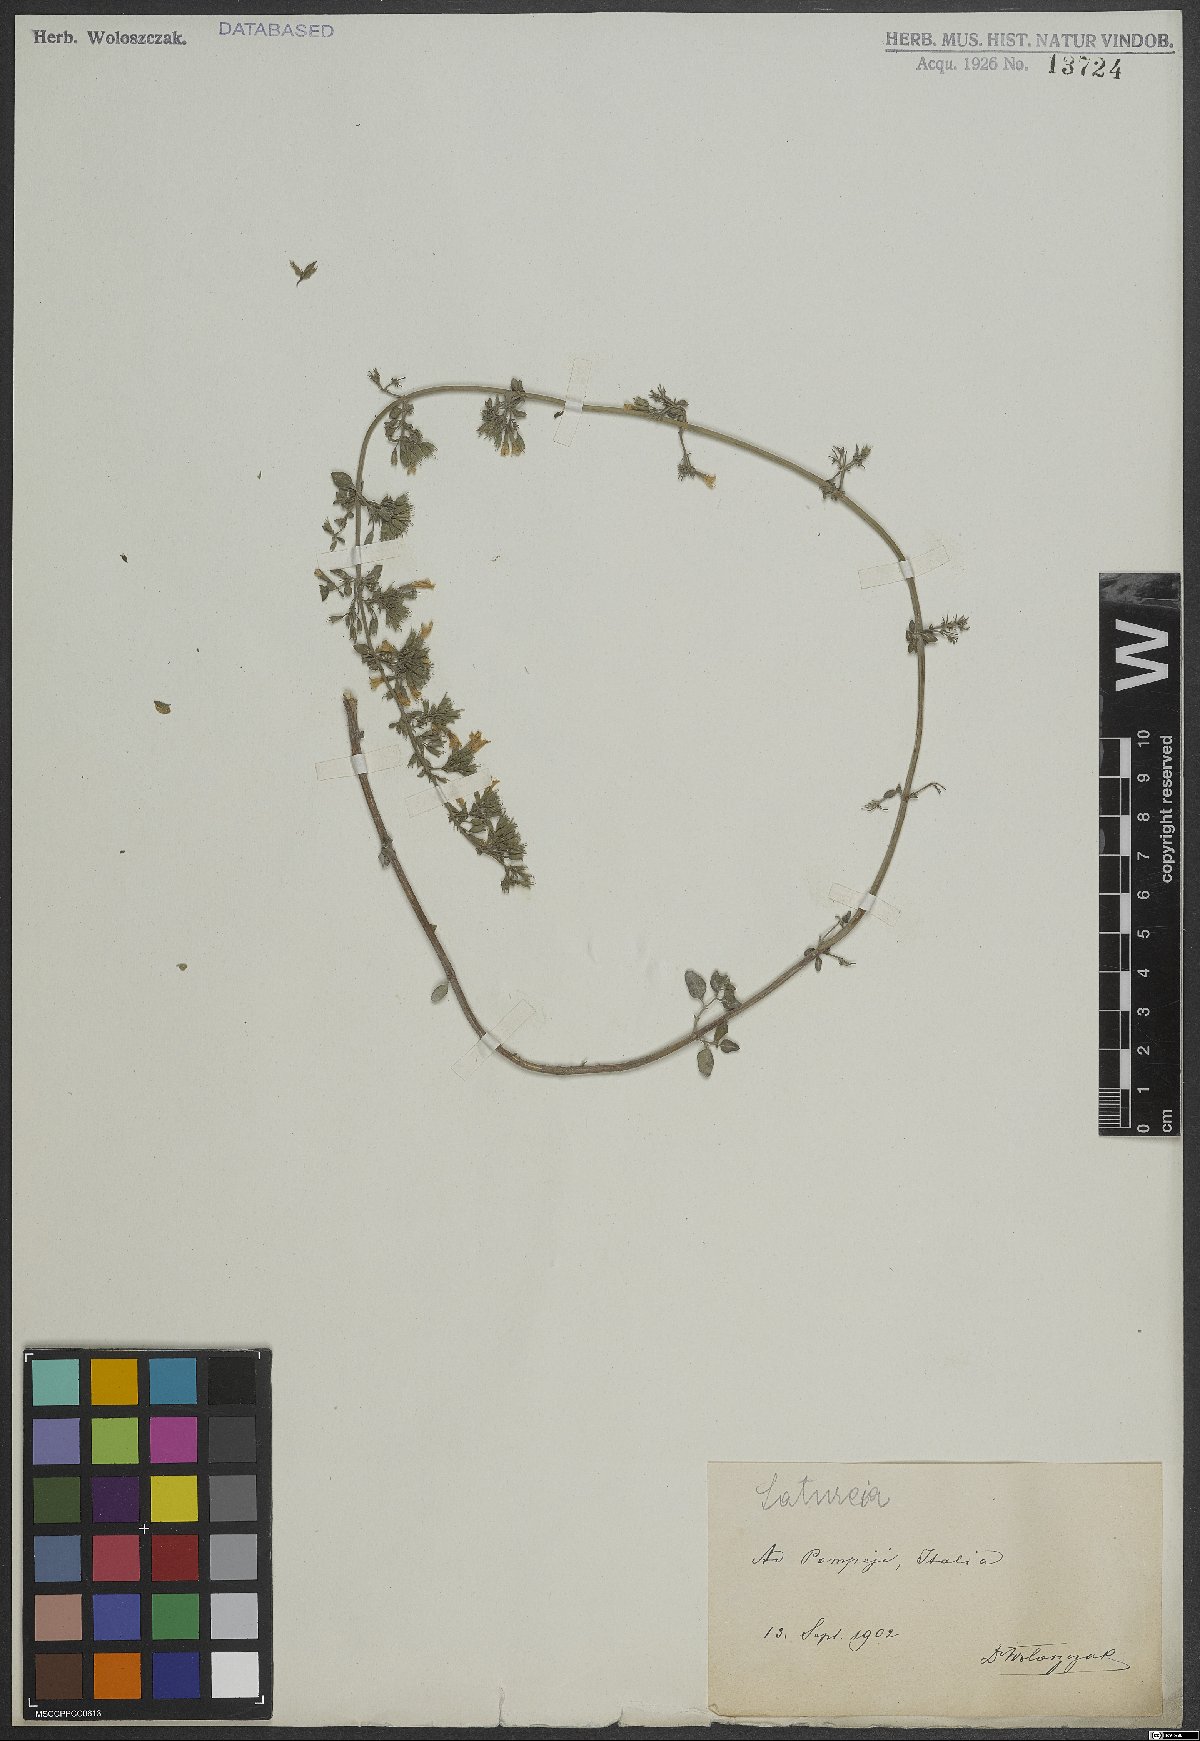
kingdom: Plantae
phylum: Tracheophyta
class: Magnoliopsida
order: Lamiales
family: Lamiaceae
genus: Calamintha
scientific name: Calamintha
